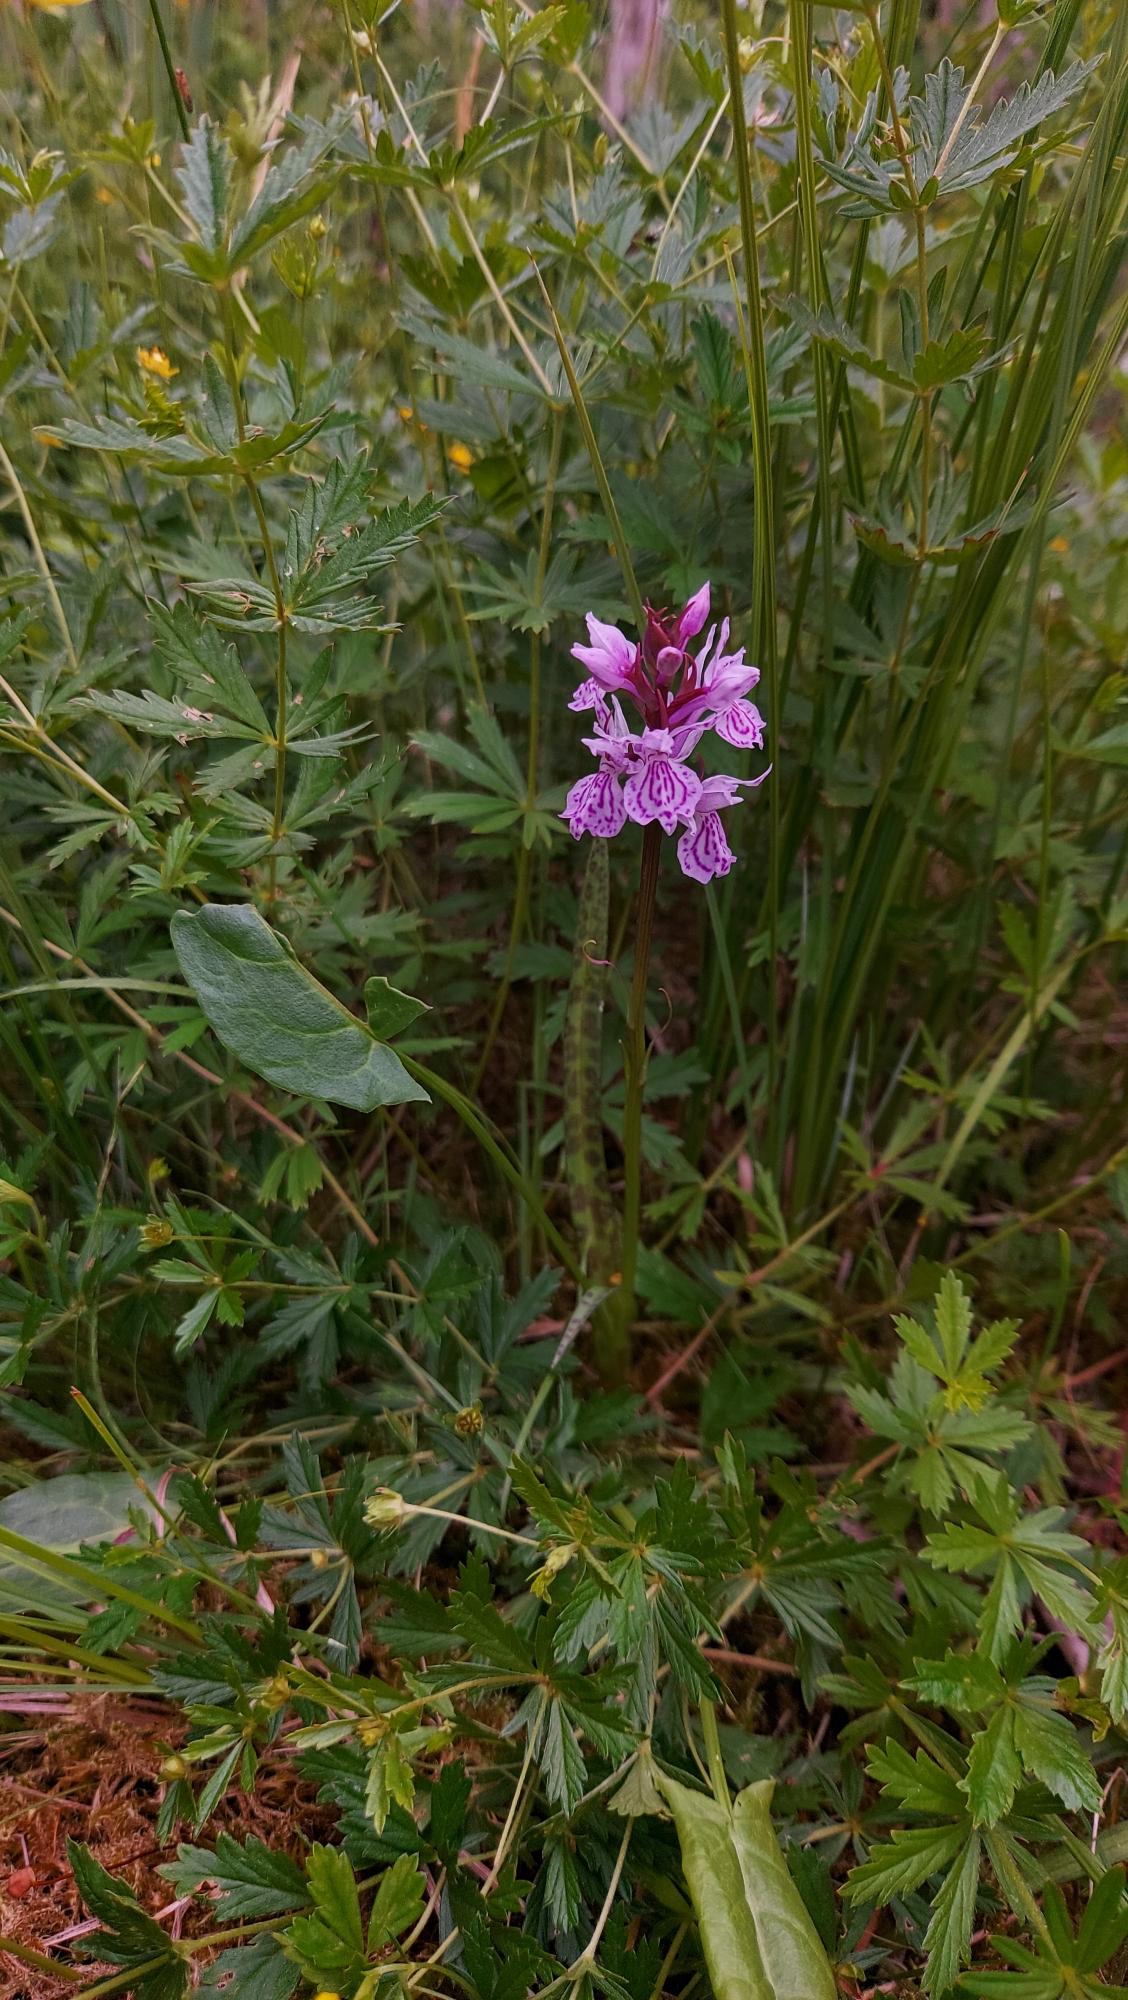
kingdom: Plantae
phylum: Tracheophyta
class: Liliopsida
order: Asparagales
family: Orchidaceae
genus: Dactylorhiza
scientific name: Dactylorhiza maculata
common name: Plettet gøgeurt
